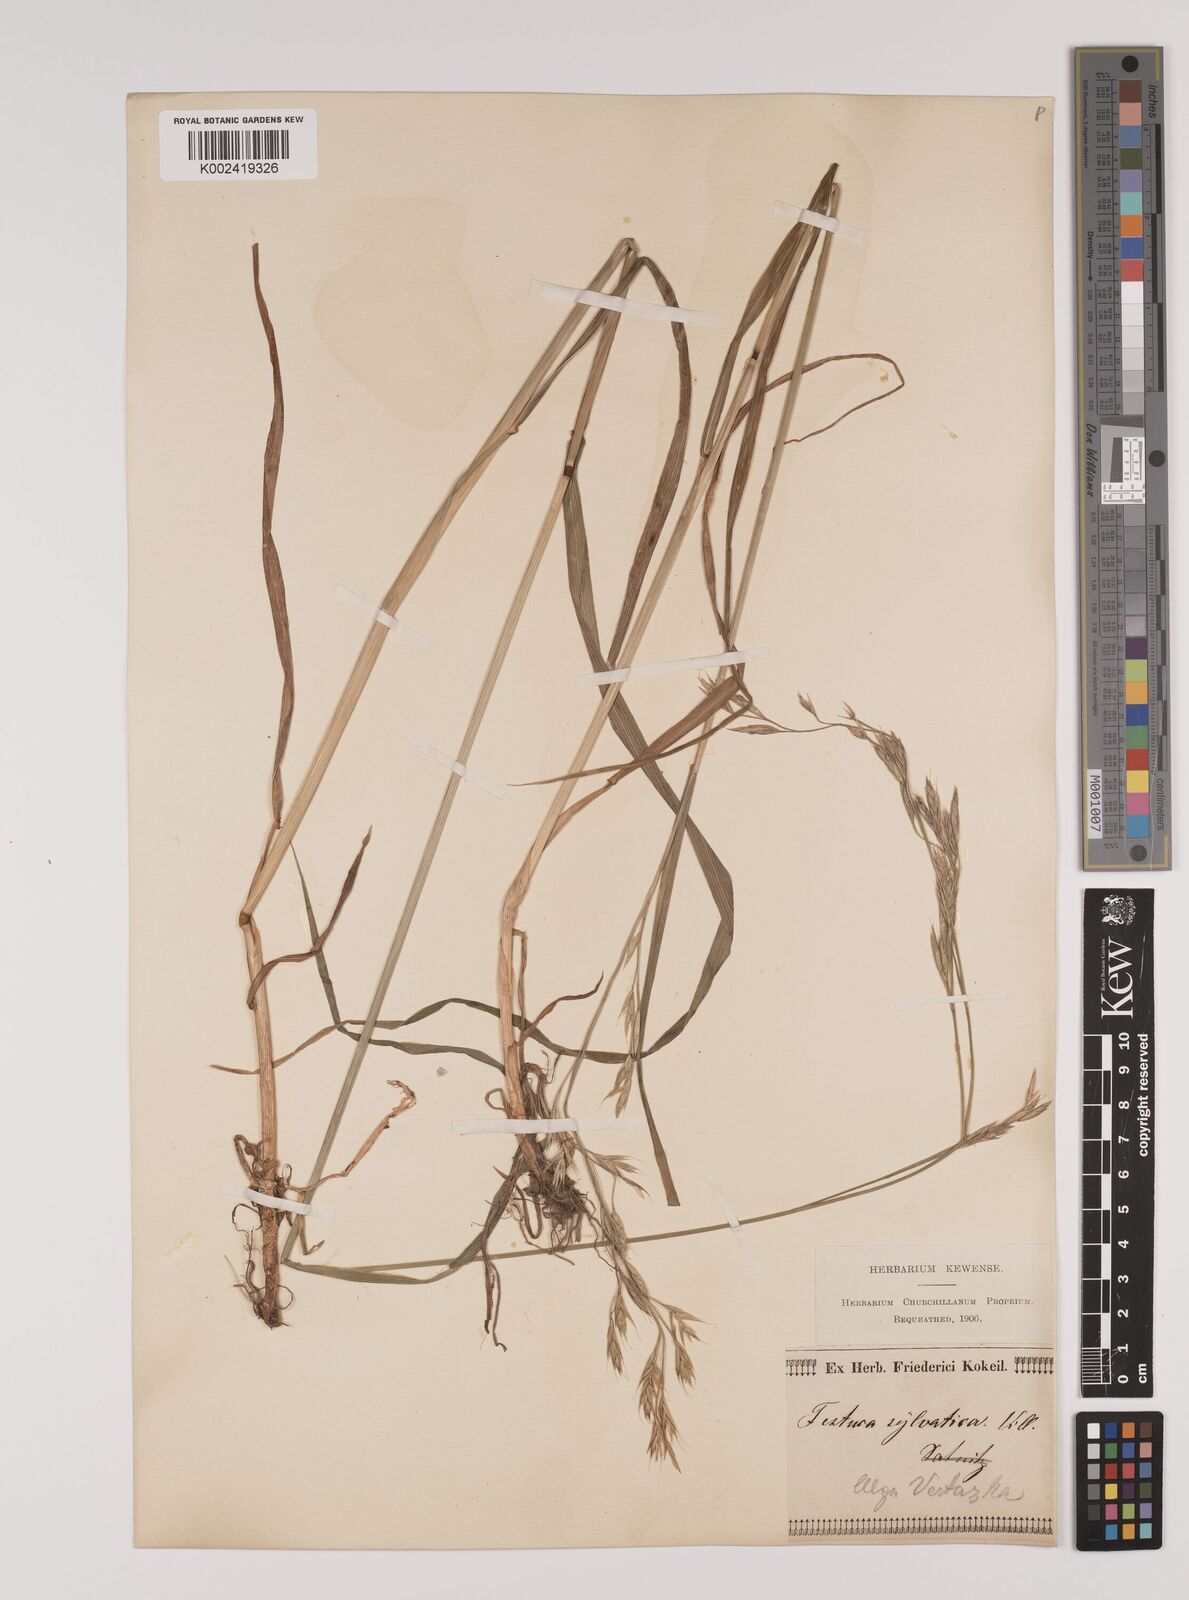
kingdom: Plantae
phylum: Tracheophyta
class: Liliopsida
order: Poales
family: Poaceae
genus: Lolium
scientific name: Lolium giganteum
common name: Giant fescue
